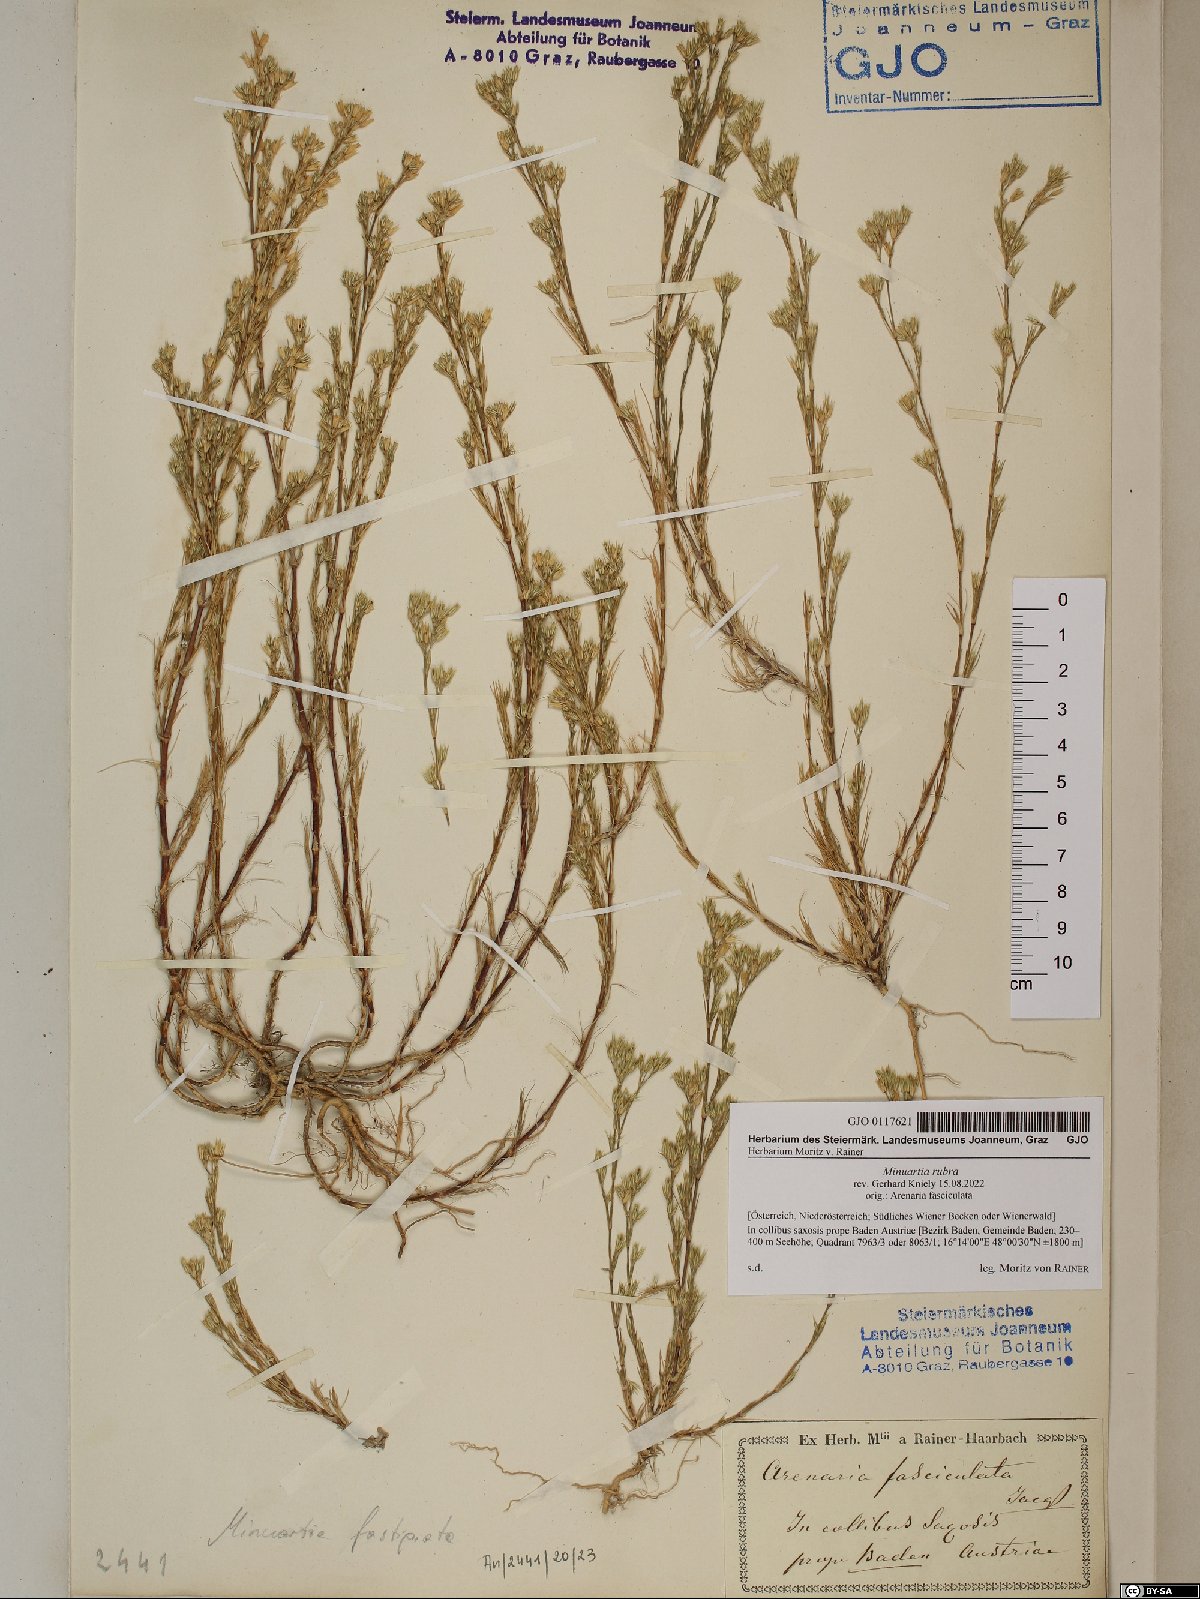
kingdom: Plantae
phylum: Tracheophyta
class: Magnoliopsida
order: Caryophyllales
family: Caryophyllaceae
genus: Minuartia
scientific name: Minuartia mucronata
